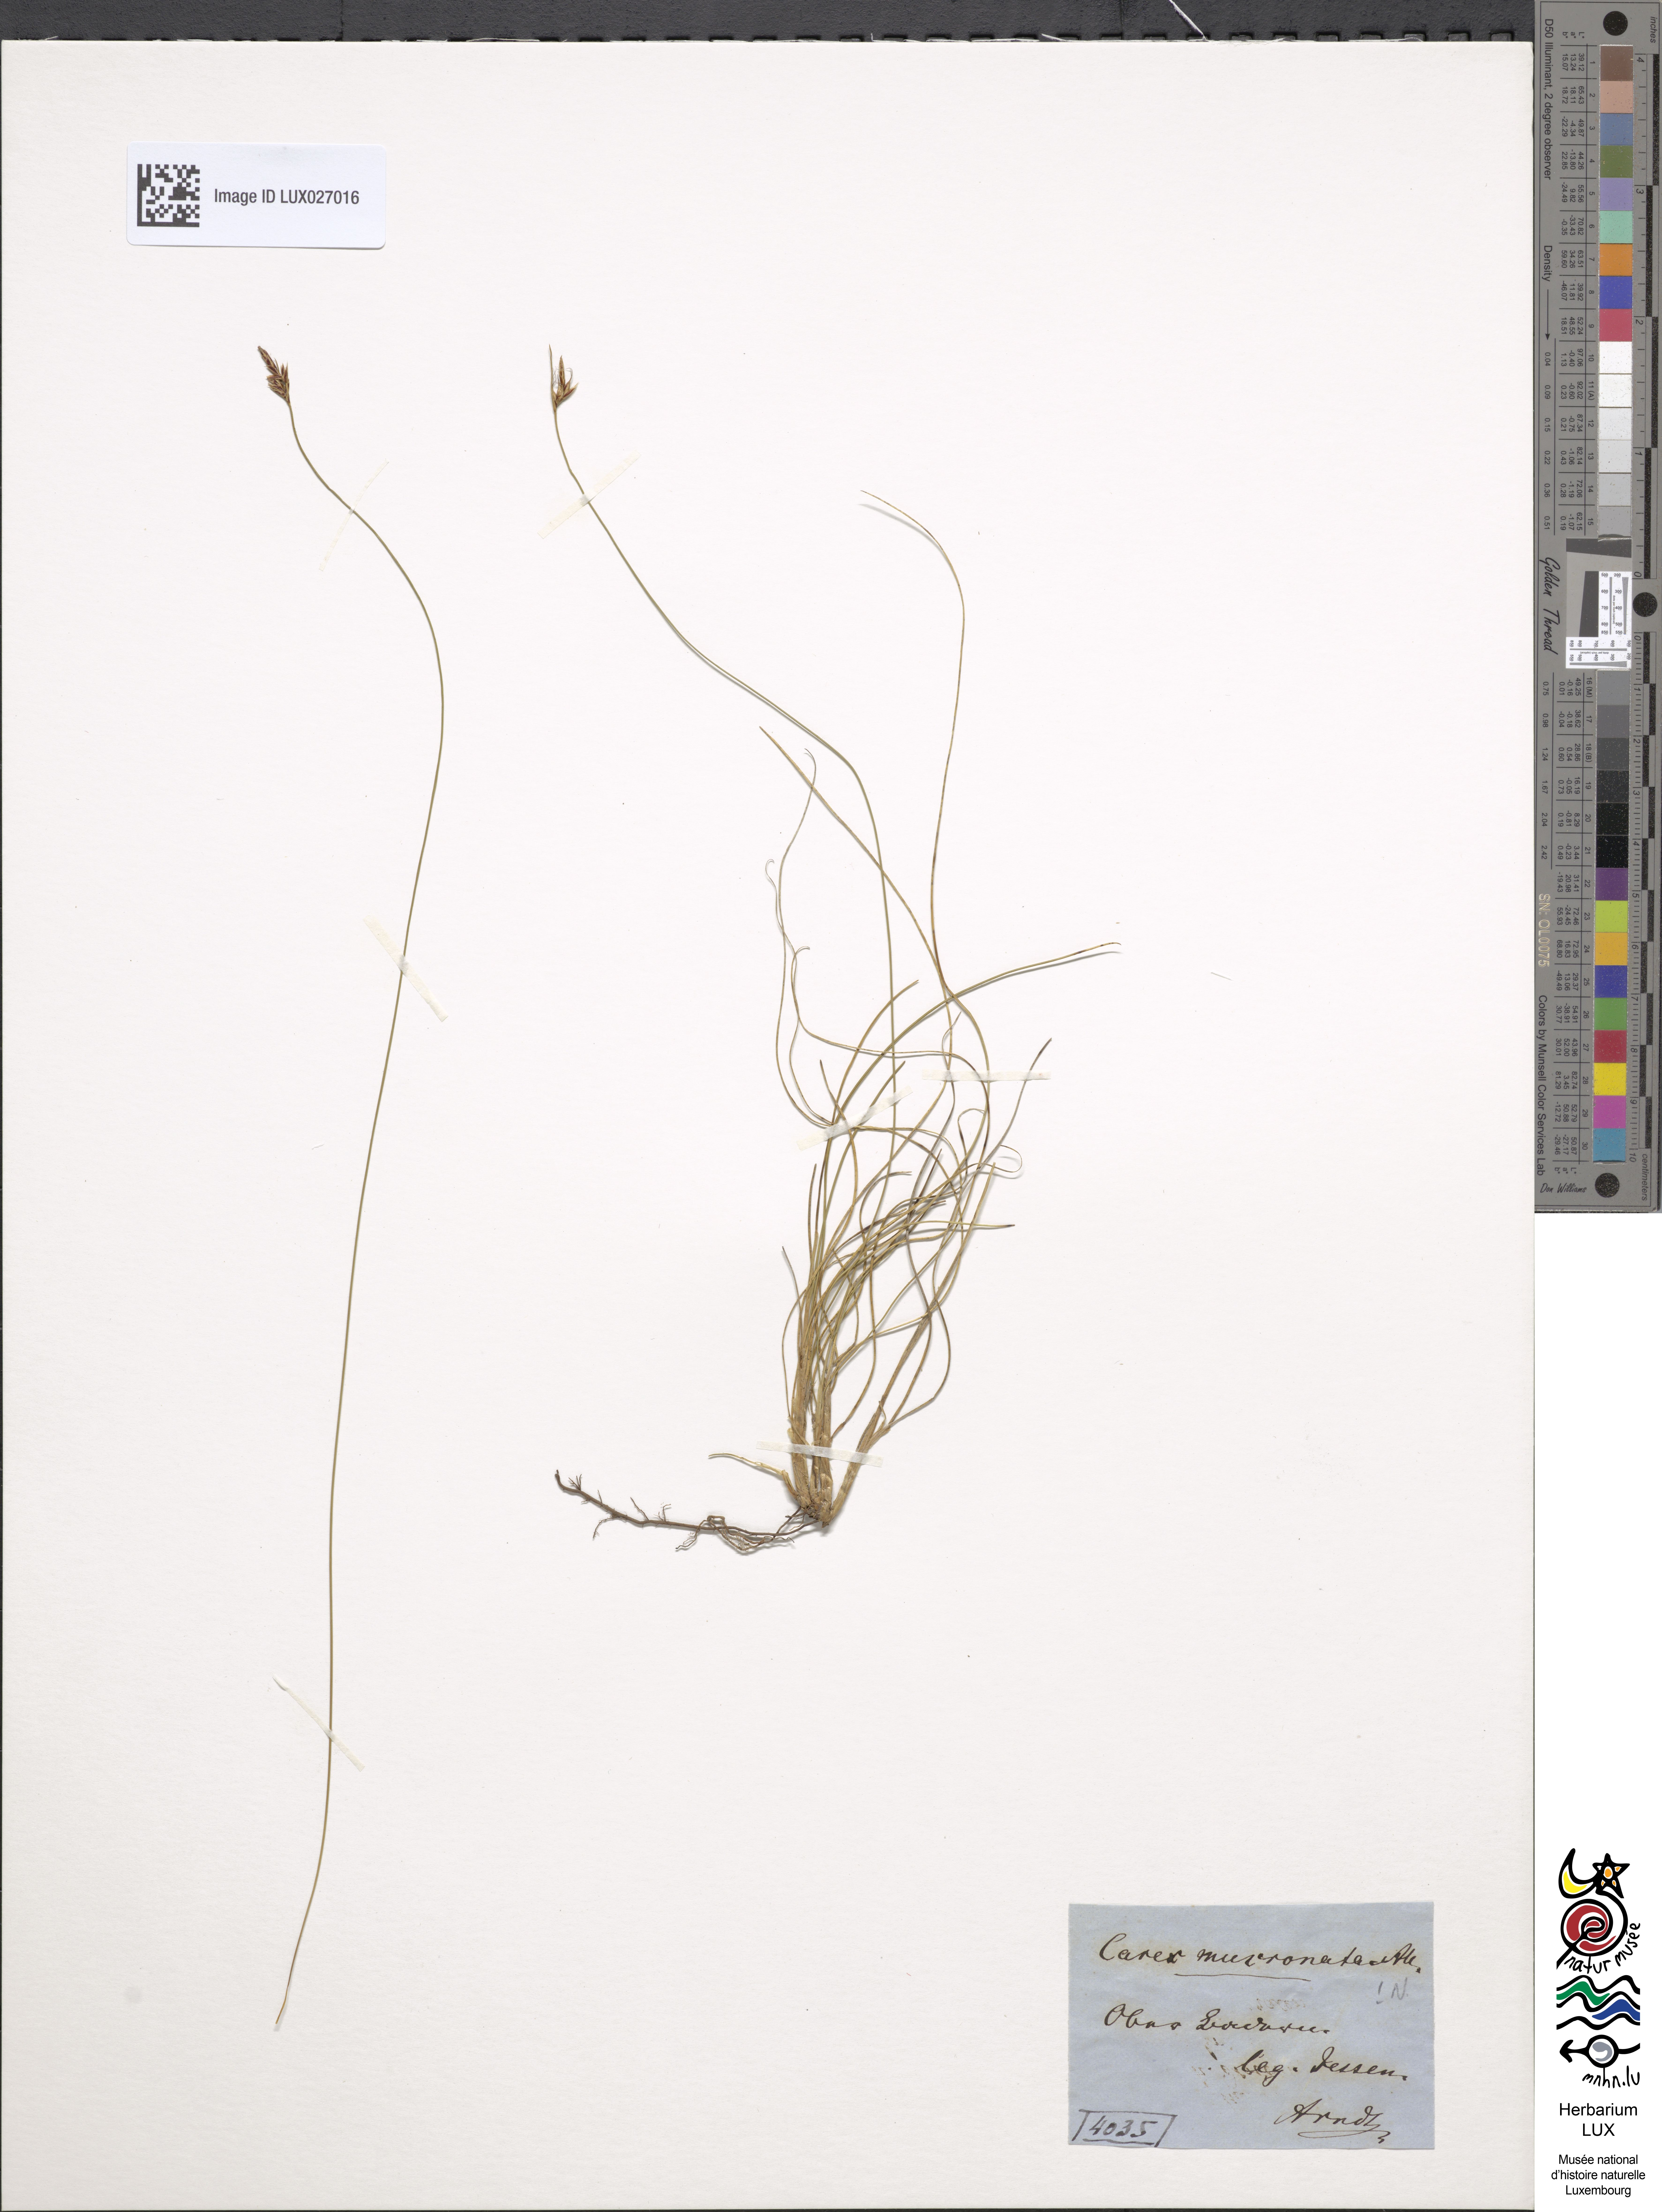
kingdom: Plantae
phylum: Tracheophyta
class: Liliopsida
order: Poales
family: Cyperaceae
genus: Carex
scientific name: Carex mucronata
